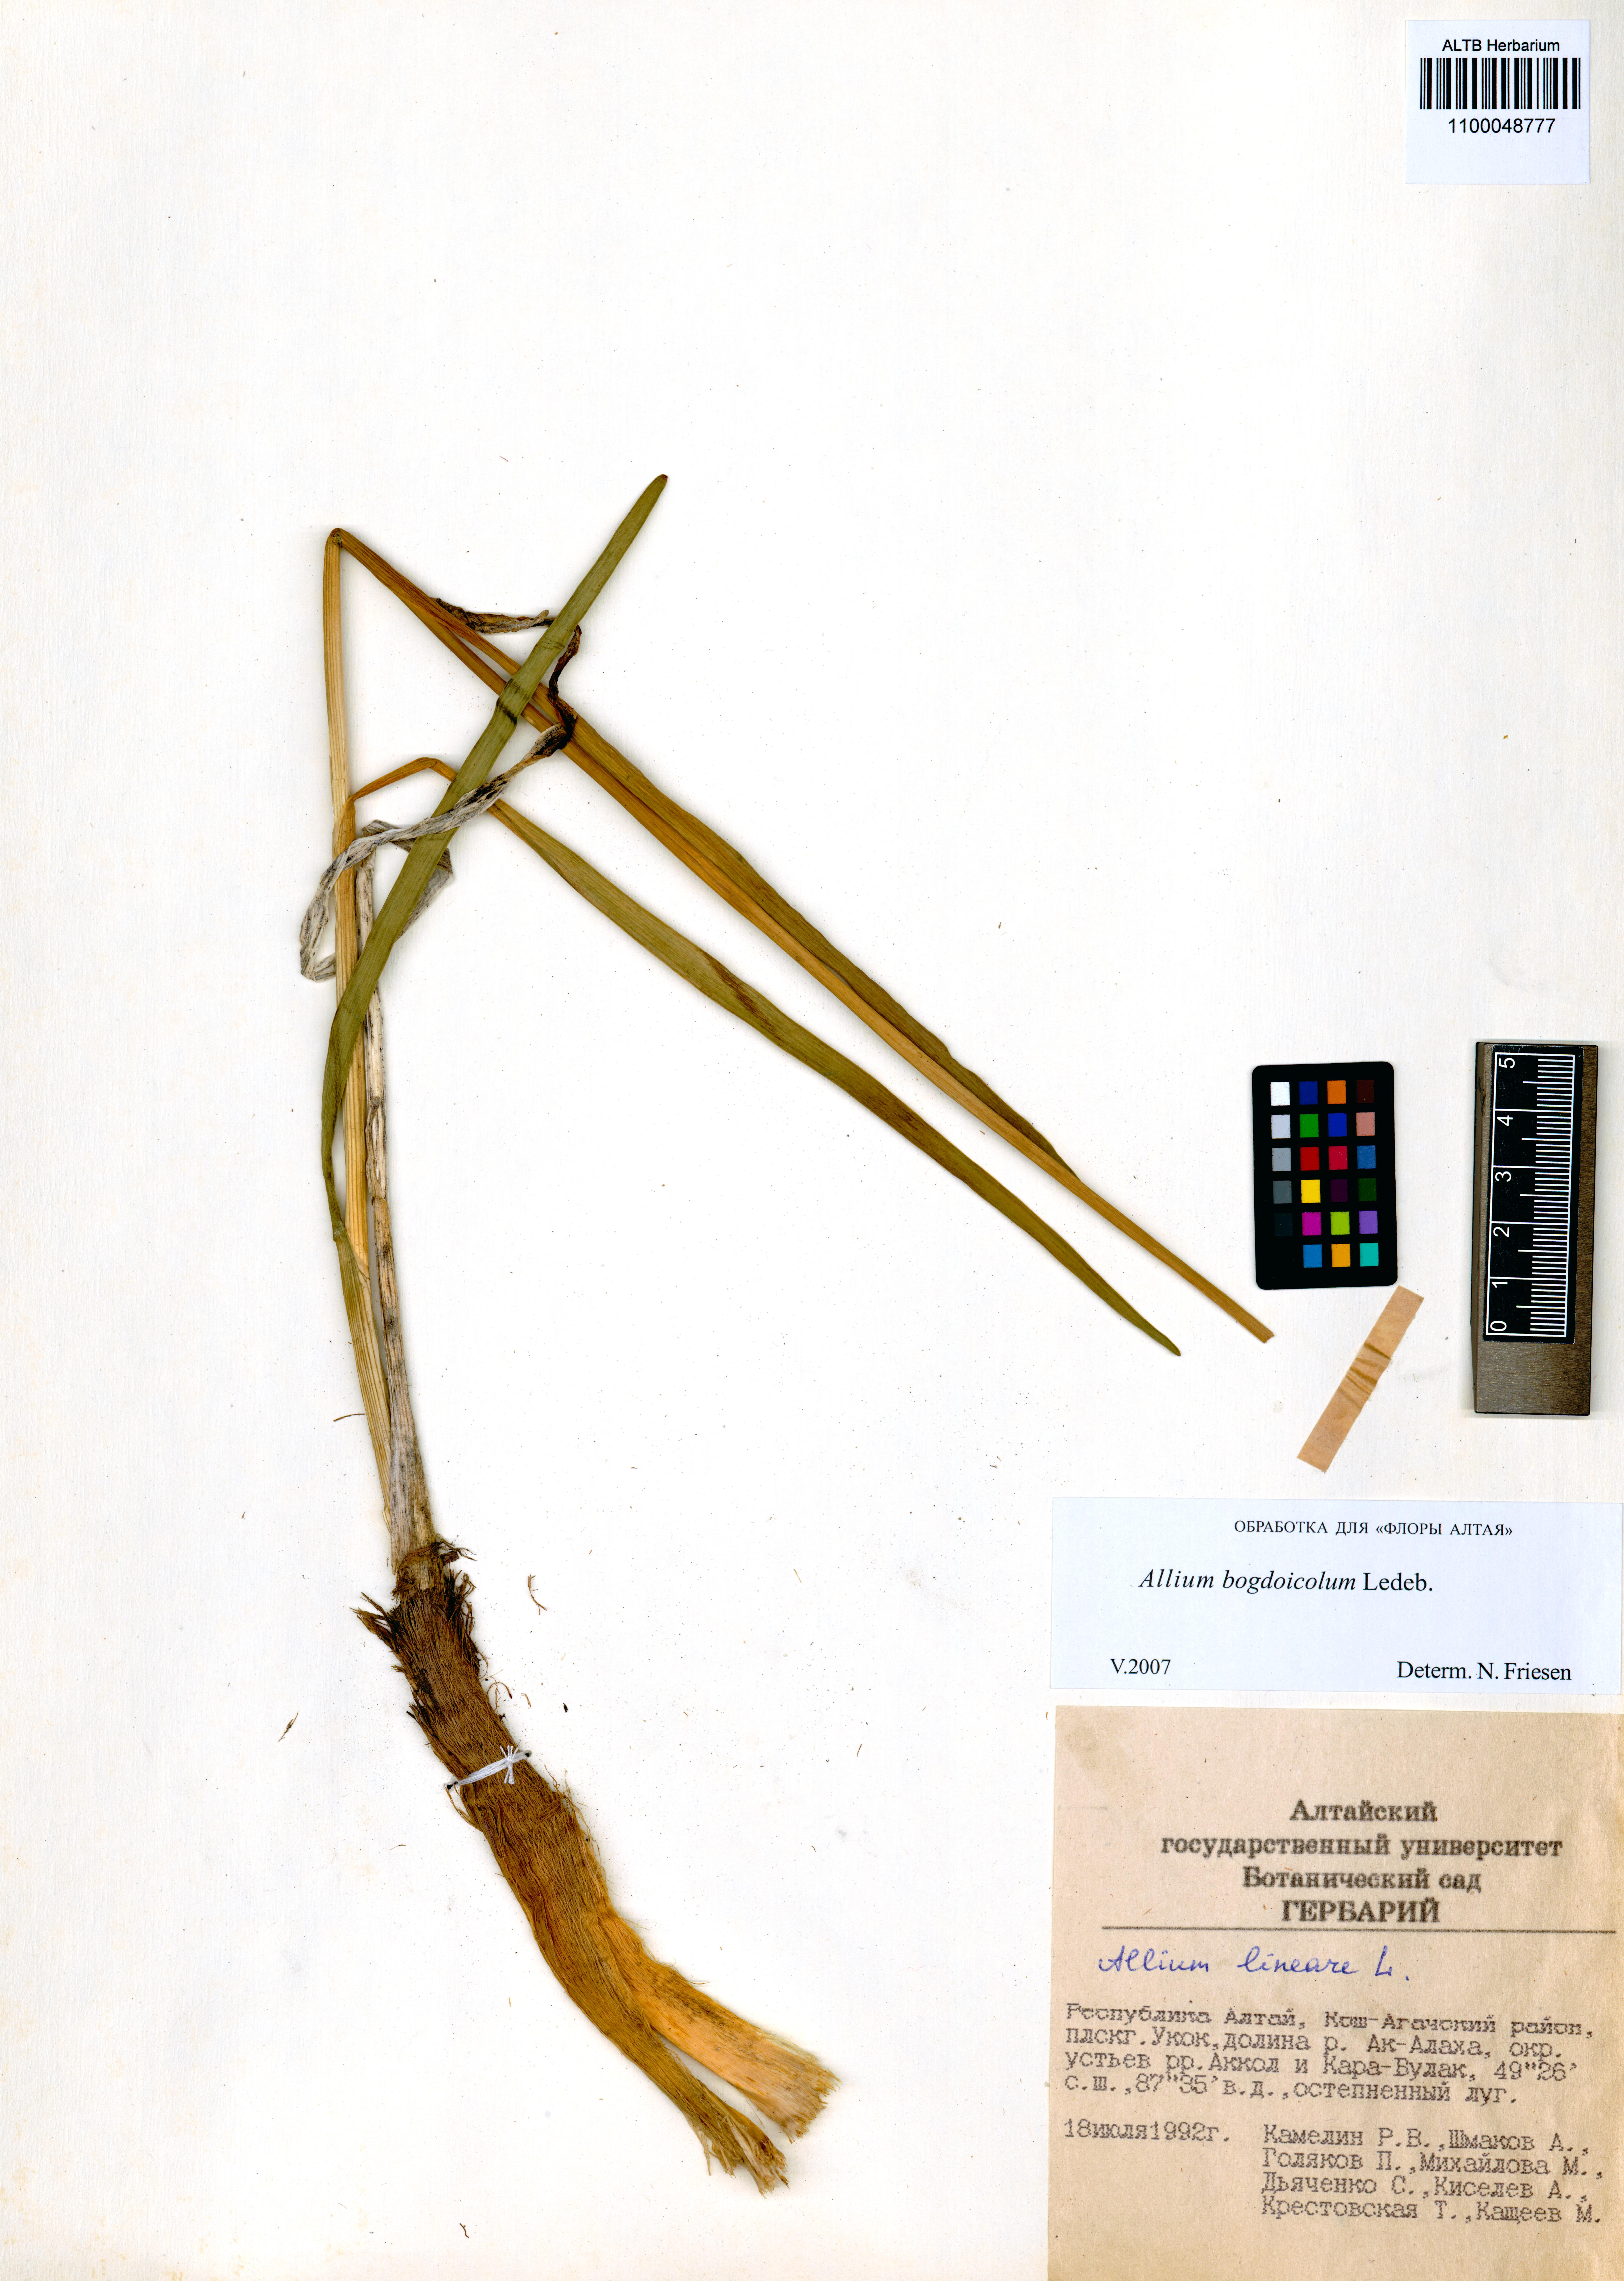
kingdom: Plantae
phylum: Tracheophyta
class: Liliopsida
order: Asparagales
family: Amaryllidaceae
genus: Allium
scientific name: Allium schrenkii
